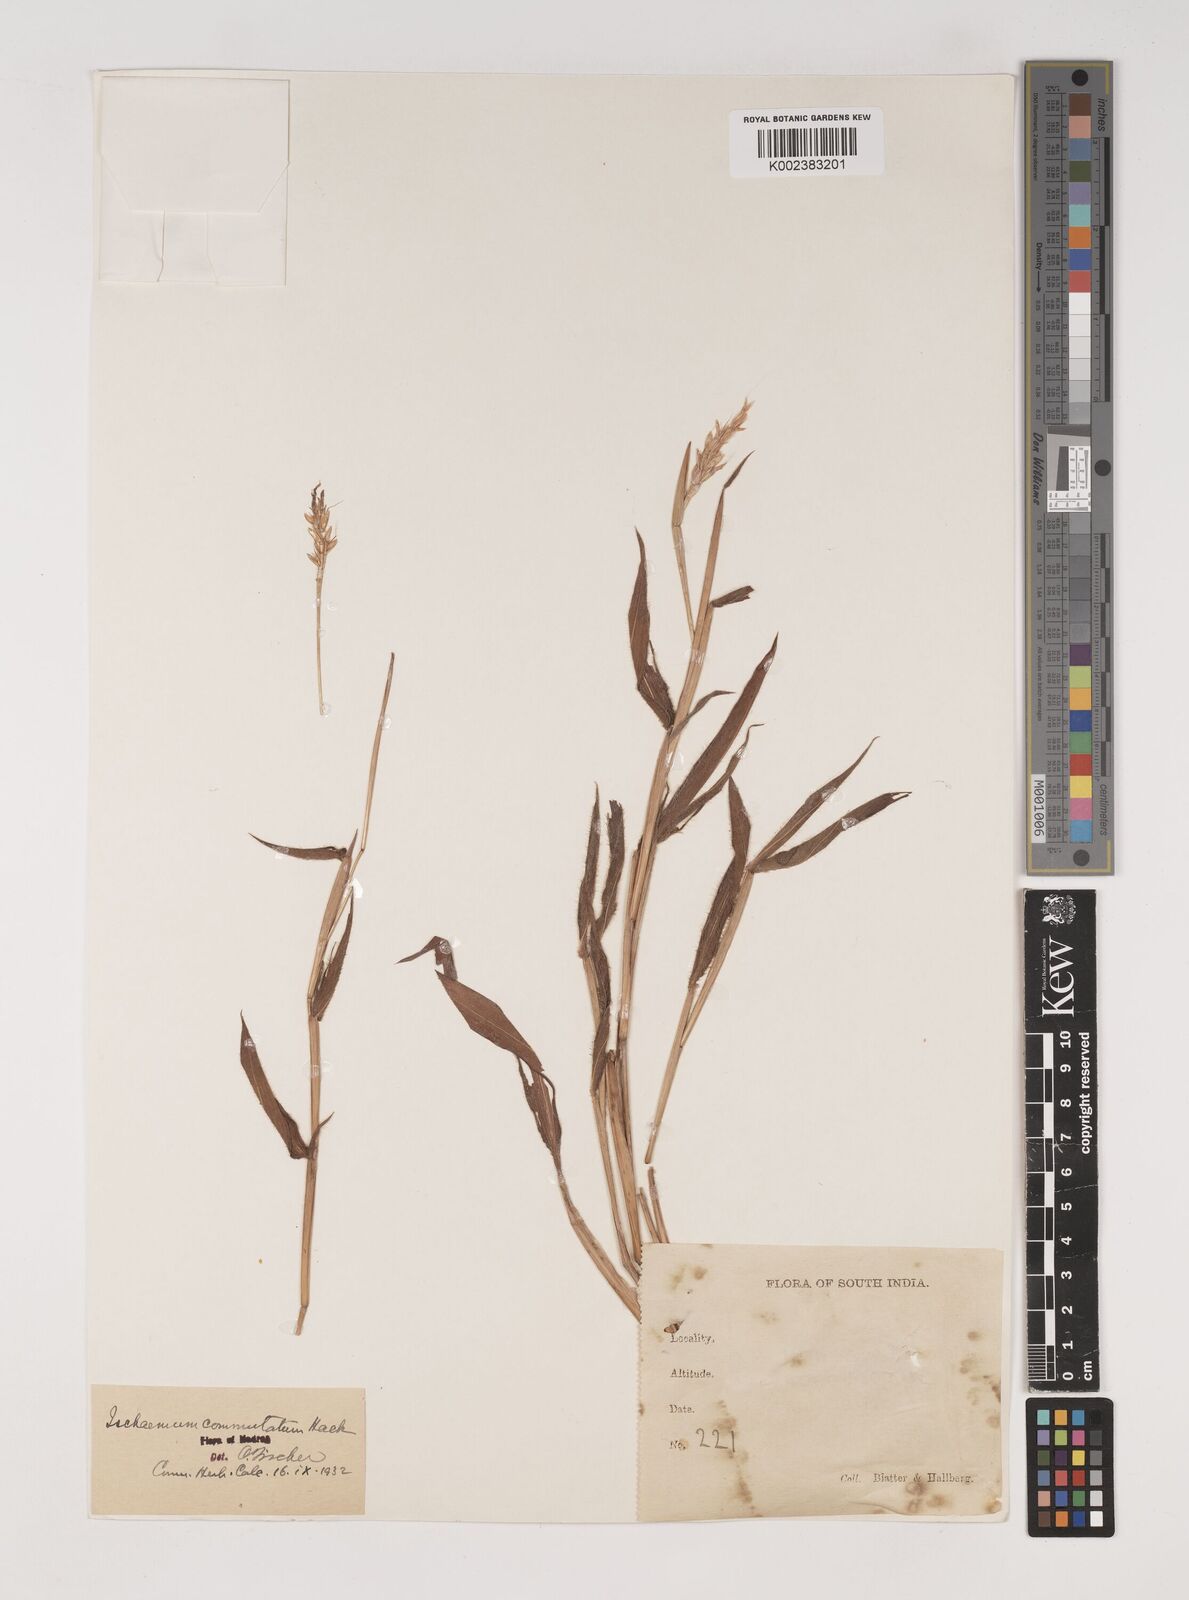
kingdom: Plantae
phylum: Tracheophyta
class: Liliopsida
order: Poales
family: Poaceae
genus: Ischaemum
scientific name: Ischaemum commutatum
